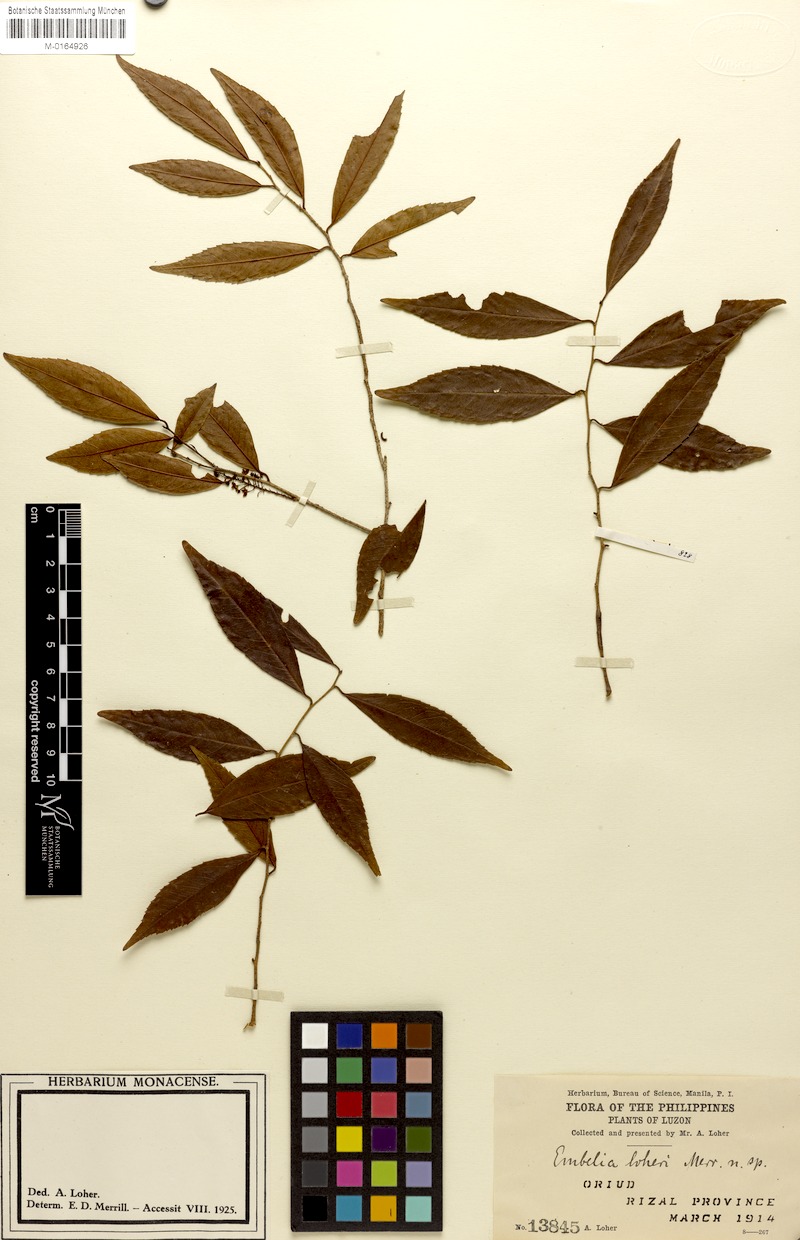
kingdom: Plantae
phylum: Tracheophyta
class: Magnoliopsida
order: Ericales
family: Primulaceae
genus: Embelia
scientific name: Embelia loheri
